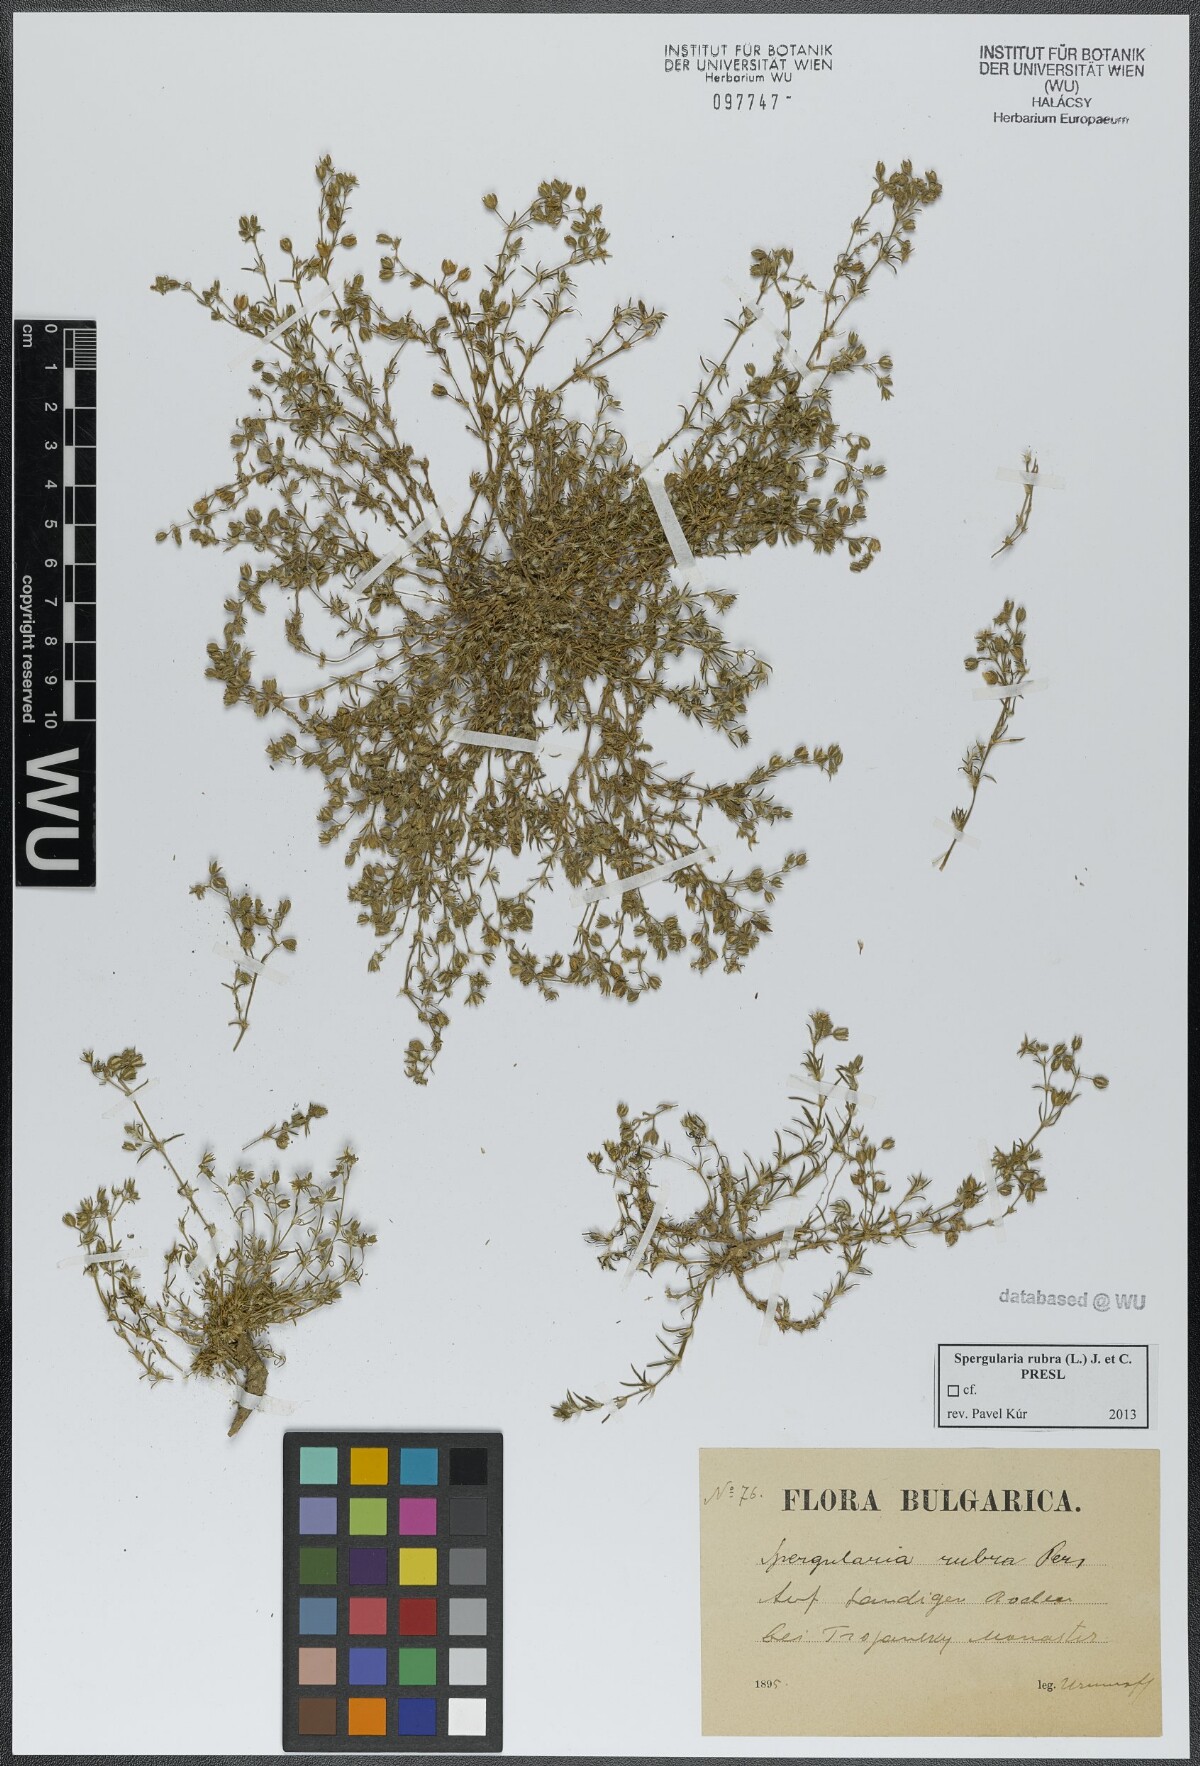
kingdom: Plantae
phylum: Tracheophyta
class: Magnoliopsida
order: Caryophyllales
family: Caryophyllaceae
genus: Spergularia
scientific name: Spergularia rubra
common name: Red sand-spurrey
